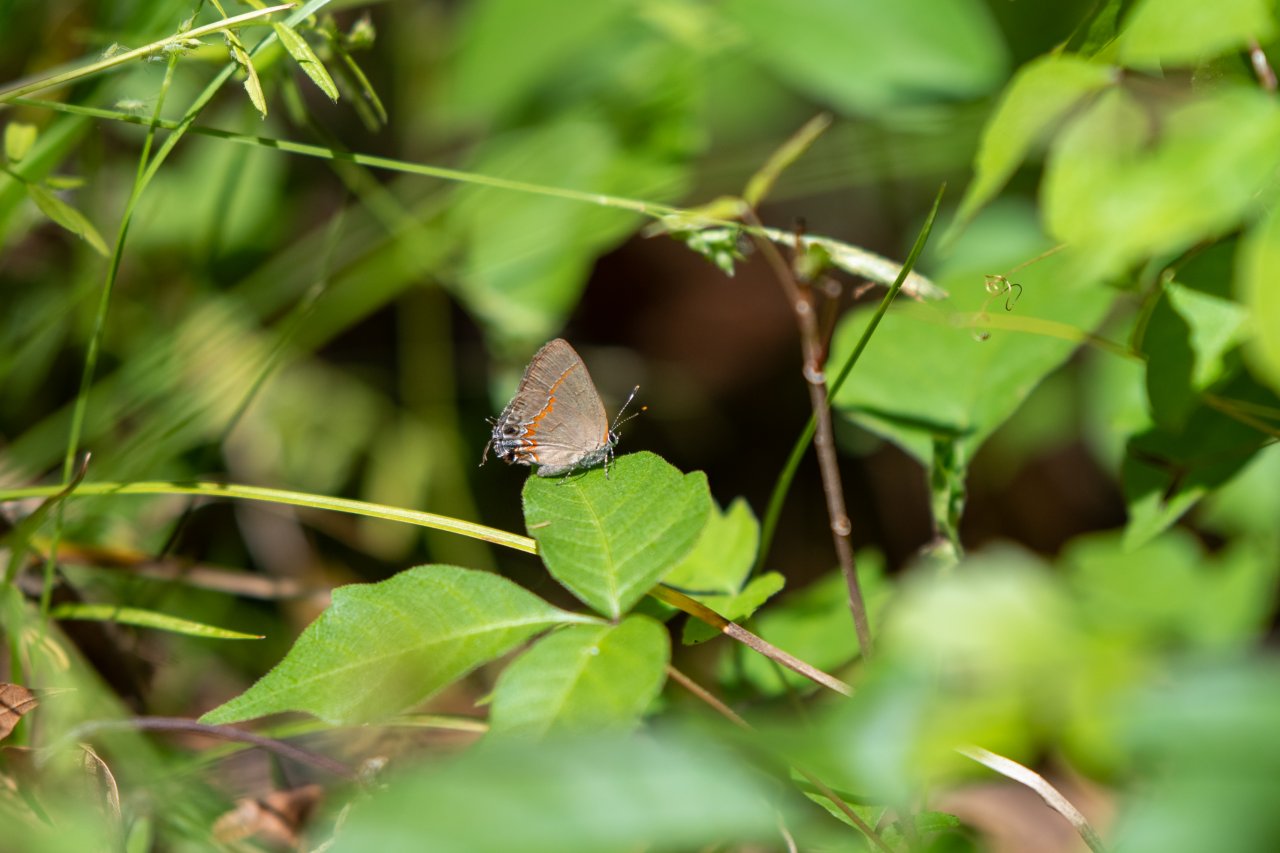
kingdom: Animalia
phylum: Arthropoda
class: Insecta
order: Lepidoptera
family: Lycaenidae
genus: Calycopis
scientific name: Calycopis cecrops
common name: Red-banded Hairstreak
